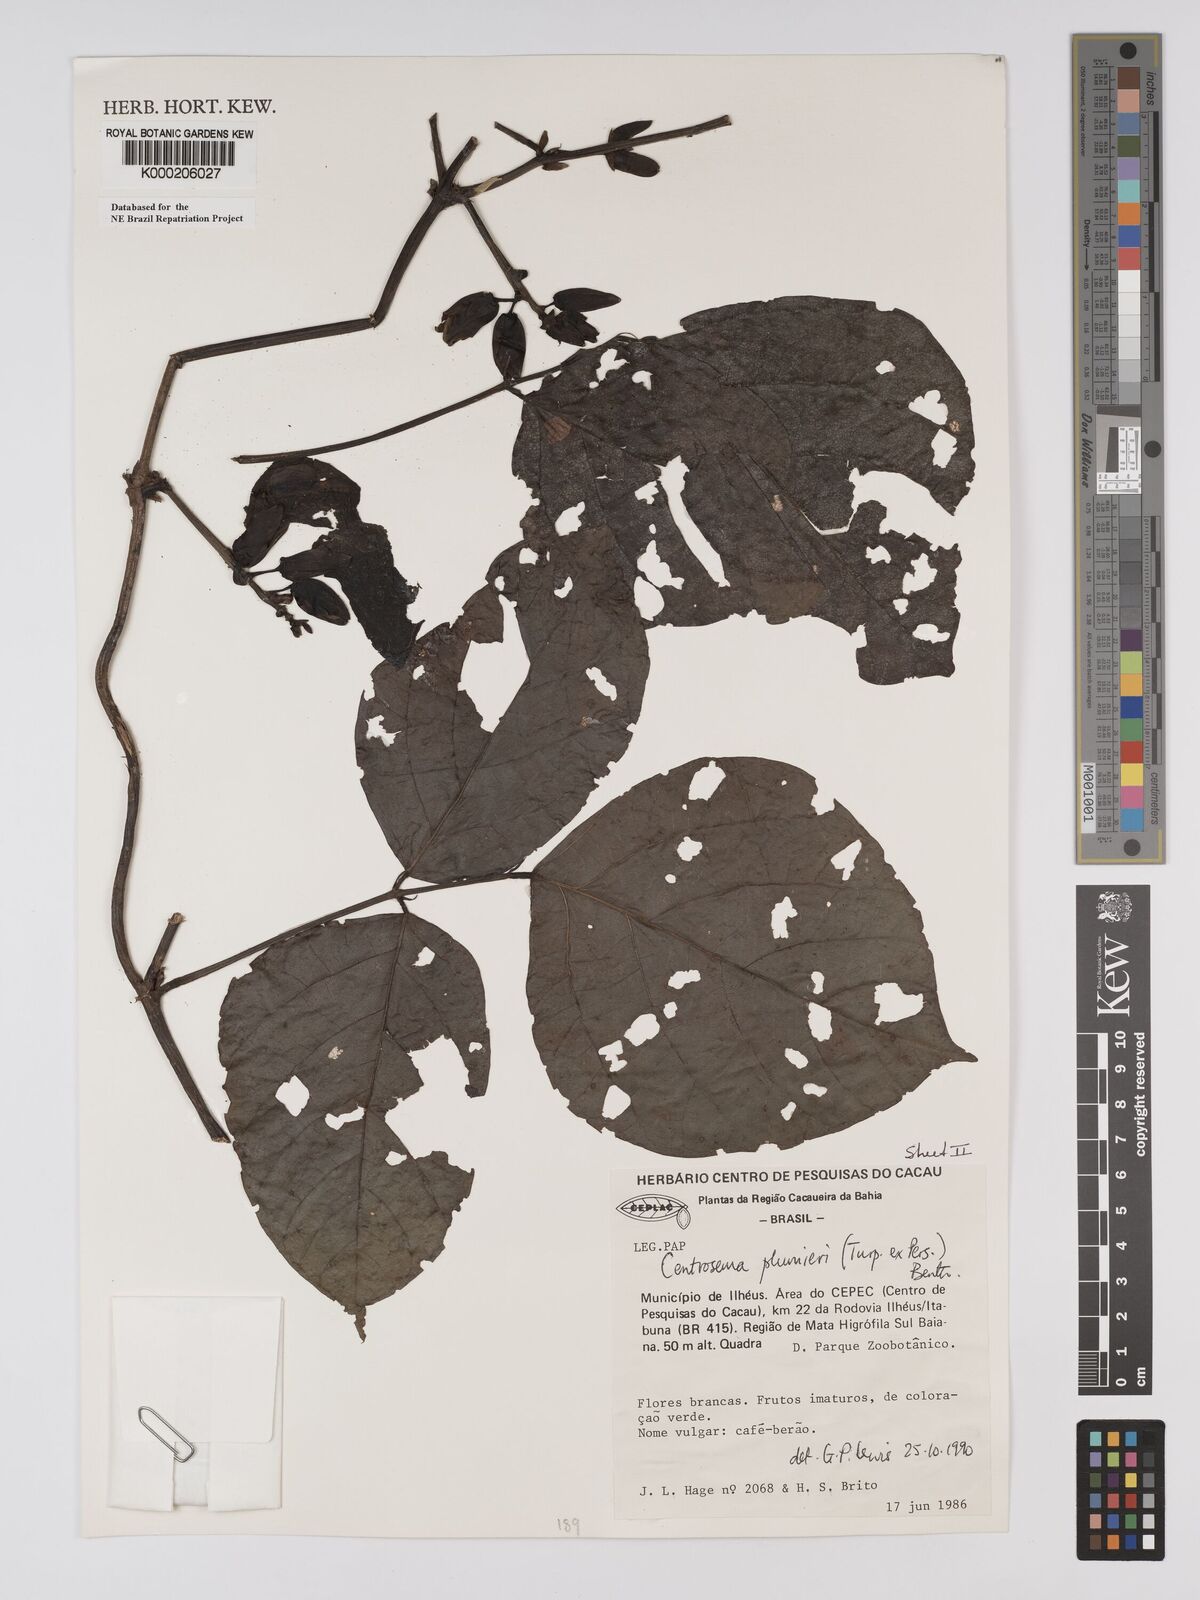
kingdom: Plantae
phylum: Tracheophyta
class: Magnoliopsida
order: Fabales
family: Fabaceae
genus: Centrosema
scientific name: Centrosema plumieri
